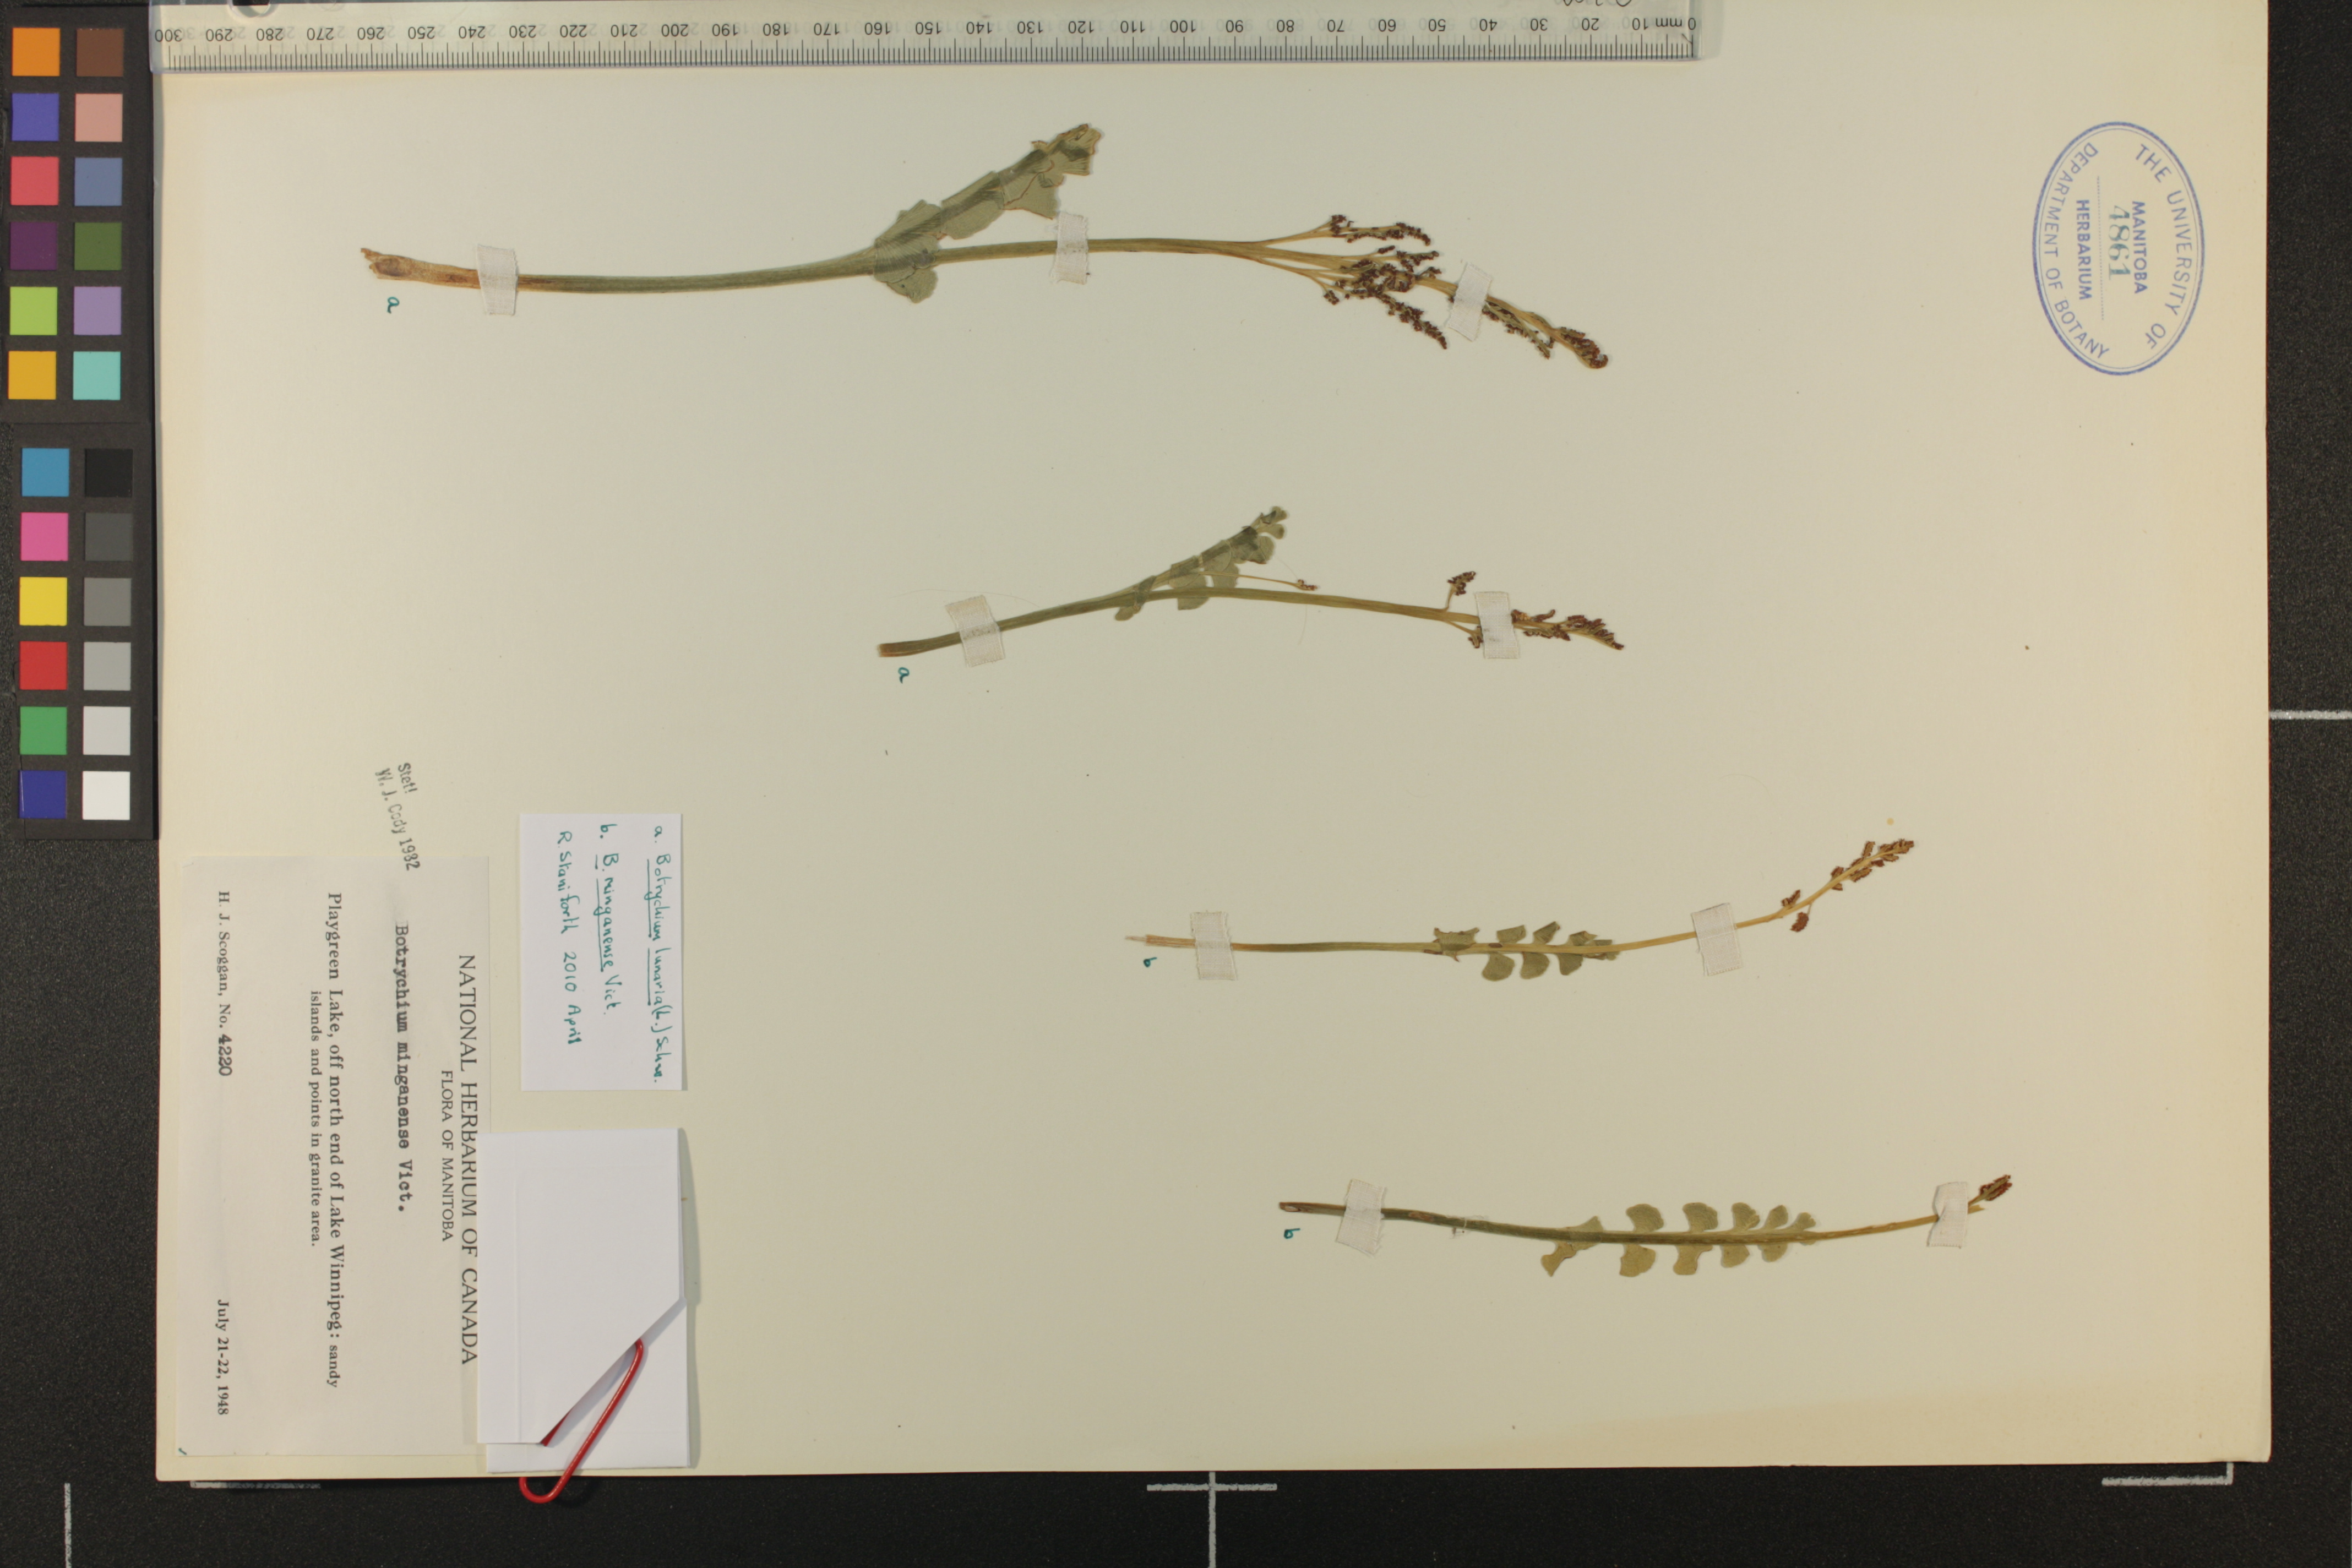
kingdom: Plantae
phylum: Tracheophyta
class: Polypodiopsida
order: Ophioglossales
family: Ophioglossaceae
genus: Botrychium
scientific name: Botrychium lunaria
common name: Moonwort
